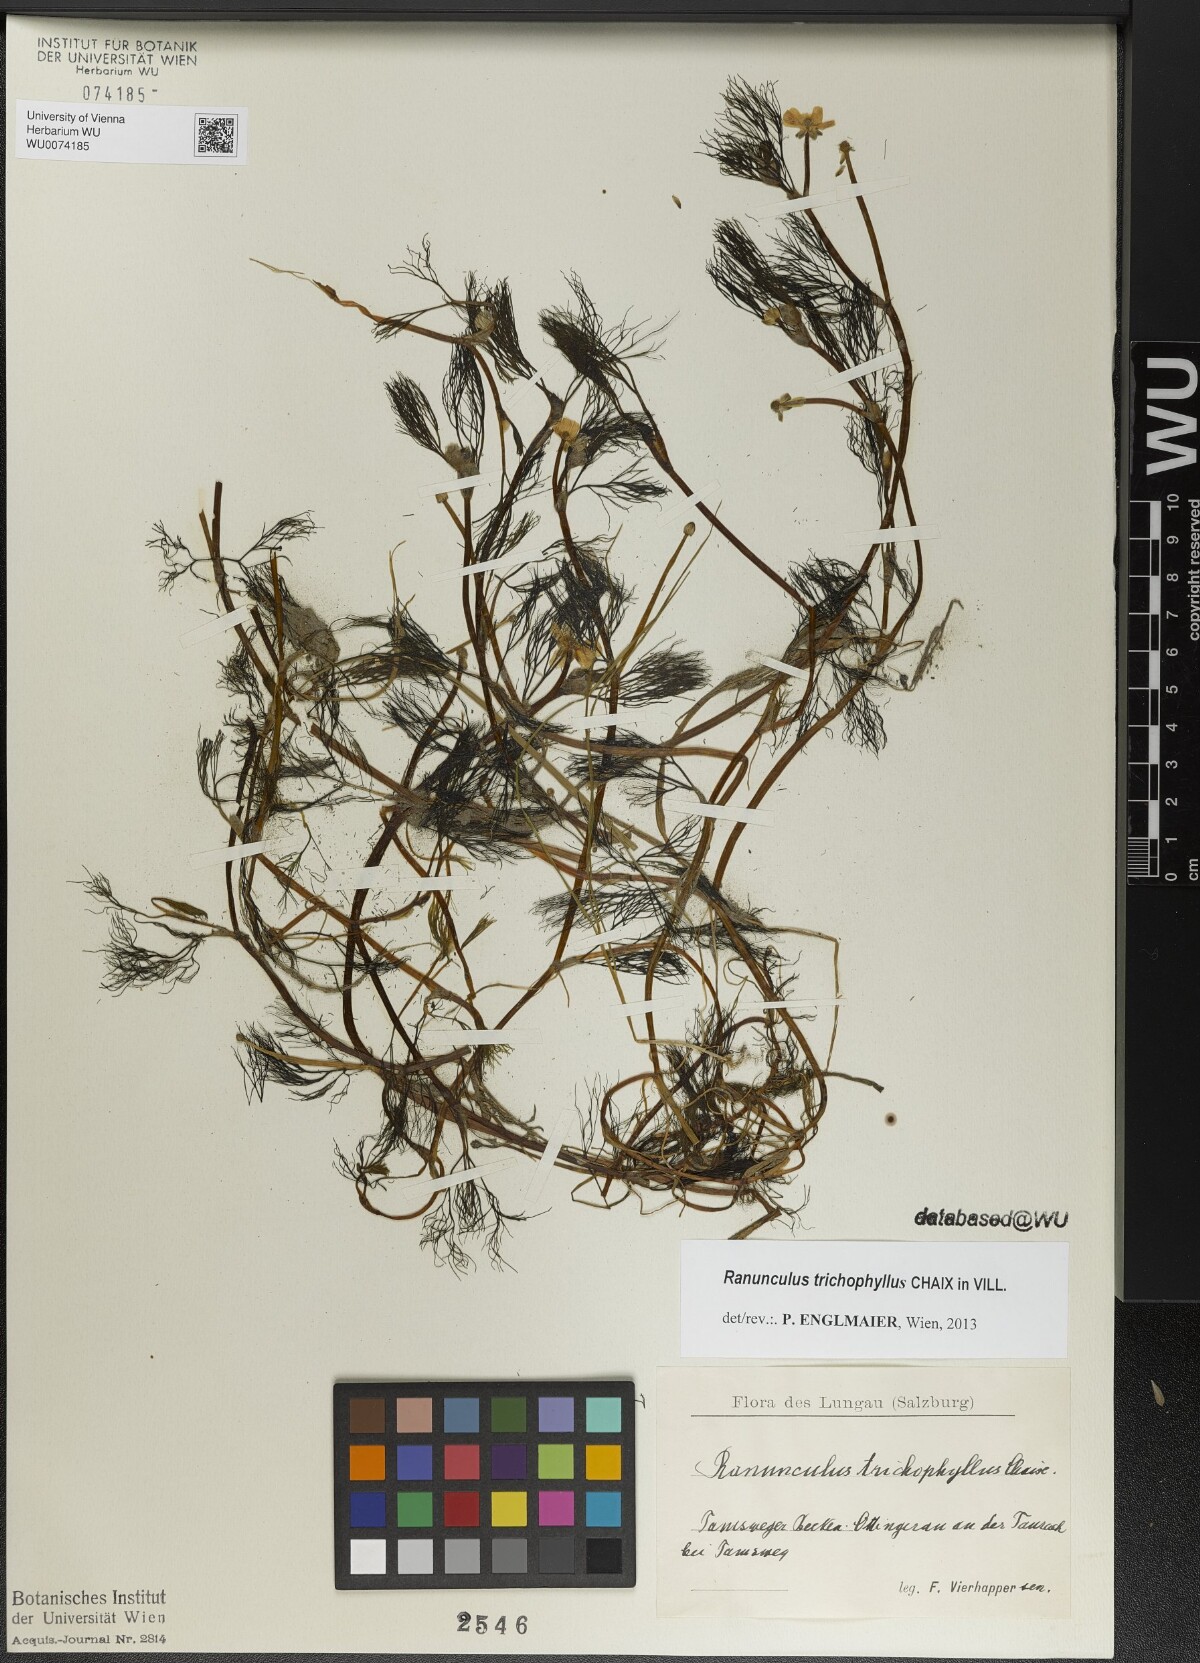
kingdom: Plantae
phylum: Tracheophyta
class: Magnoliopsida
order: Ranunculales
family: Ranunculaceae
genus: Ranunculus
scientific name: Ranunculus trichophyllus
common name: Thread-leaved water-crowfoot
